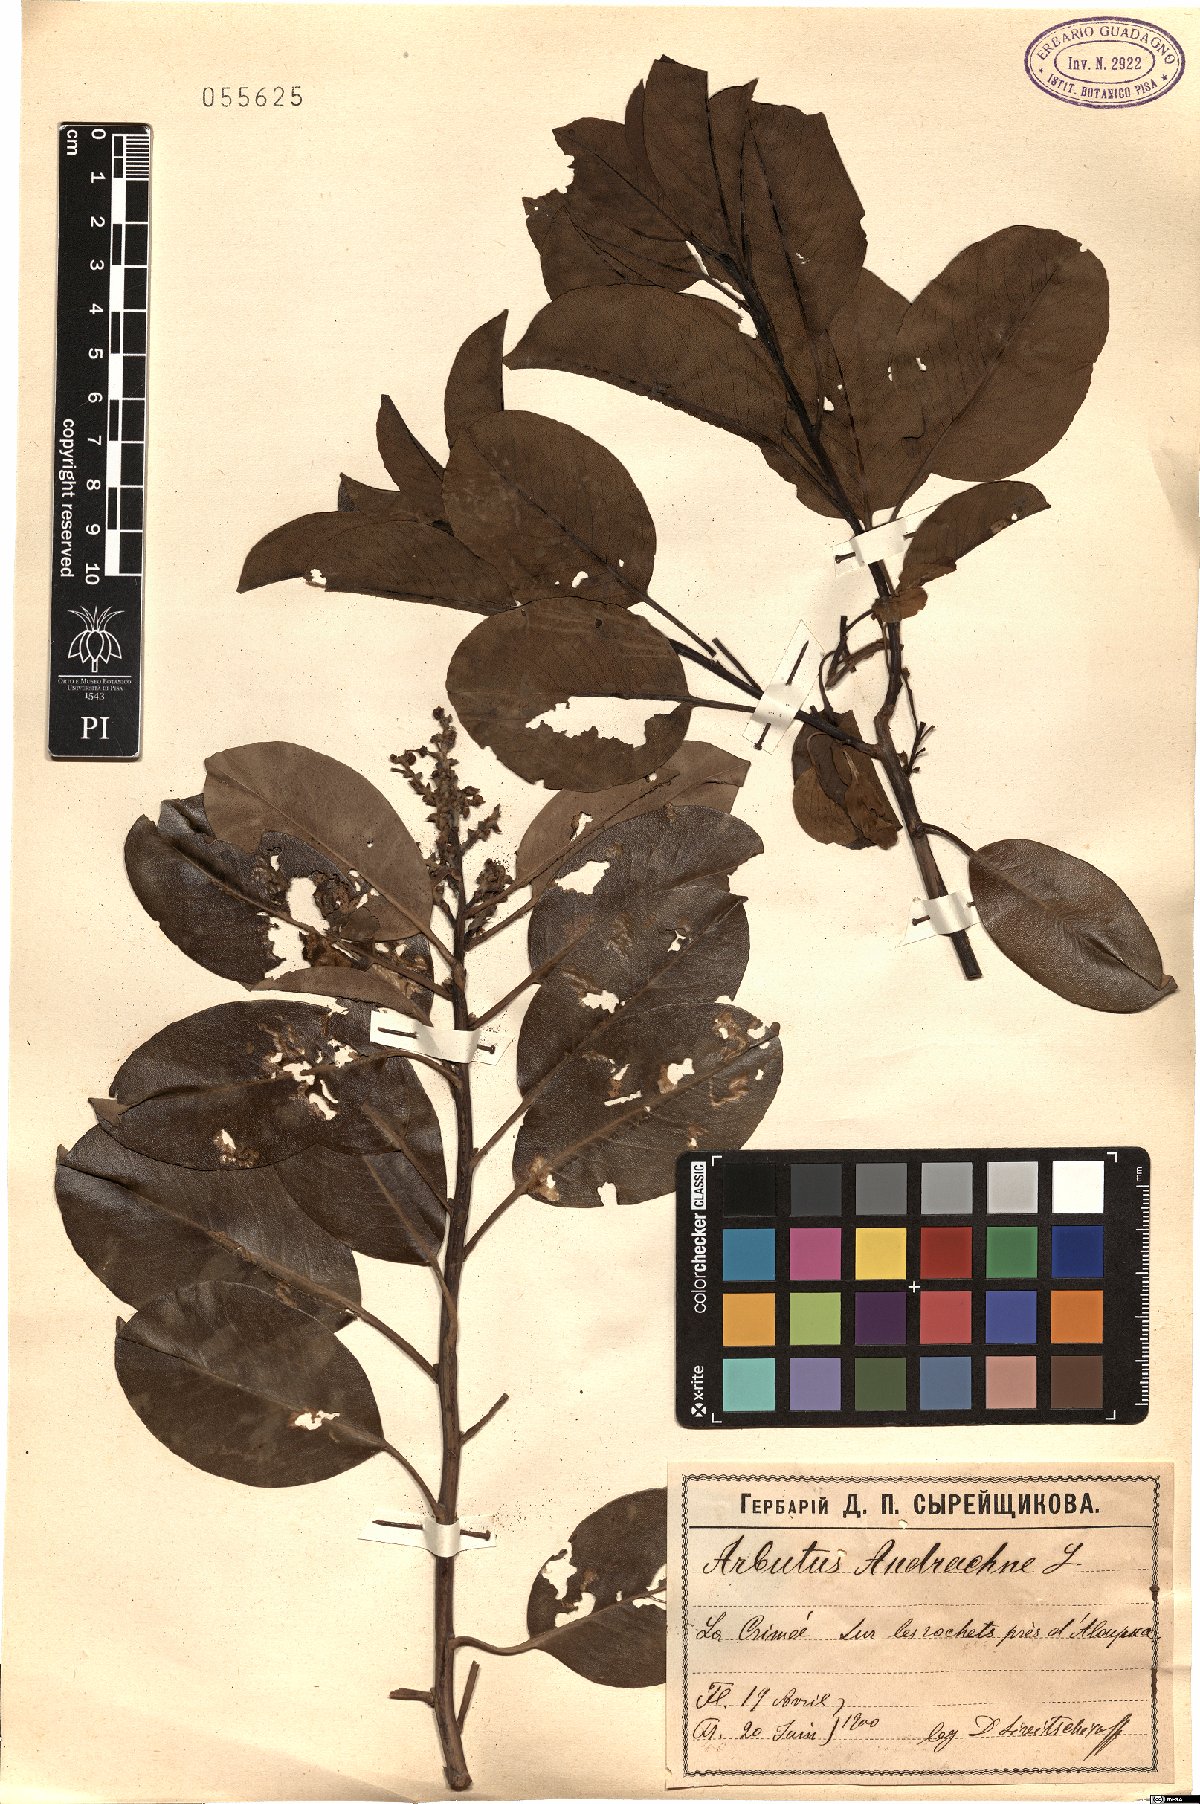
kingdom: Plantae
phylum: Tracheophyta
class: Magnoliopsida
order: Ericales
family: Ericaceae
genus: Arbutus
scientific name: Arbutus andrachne
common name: Greek strawberry tree
